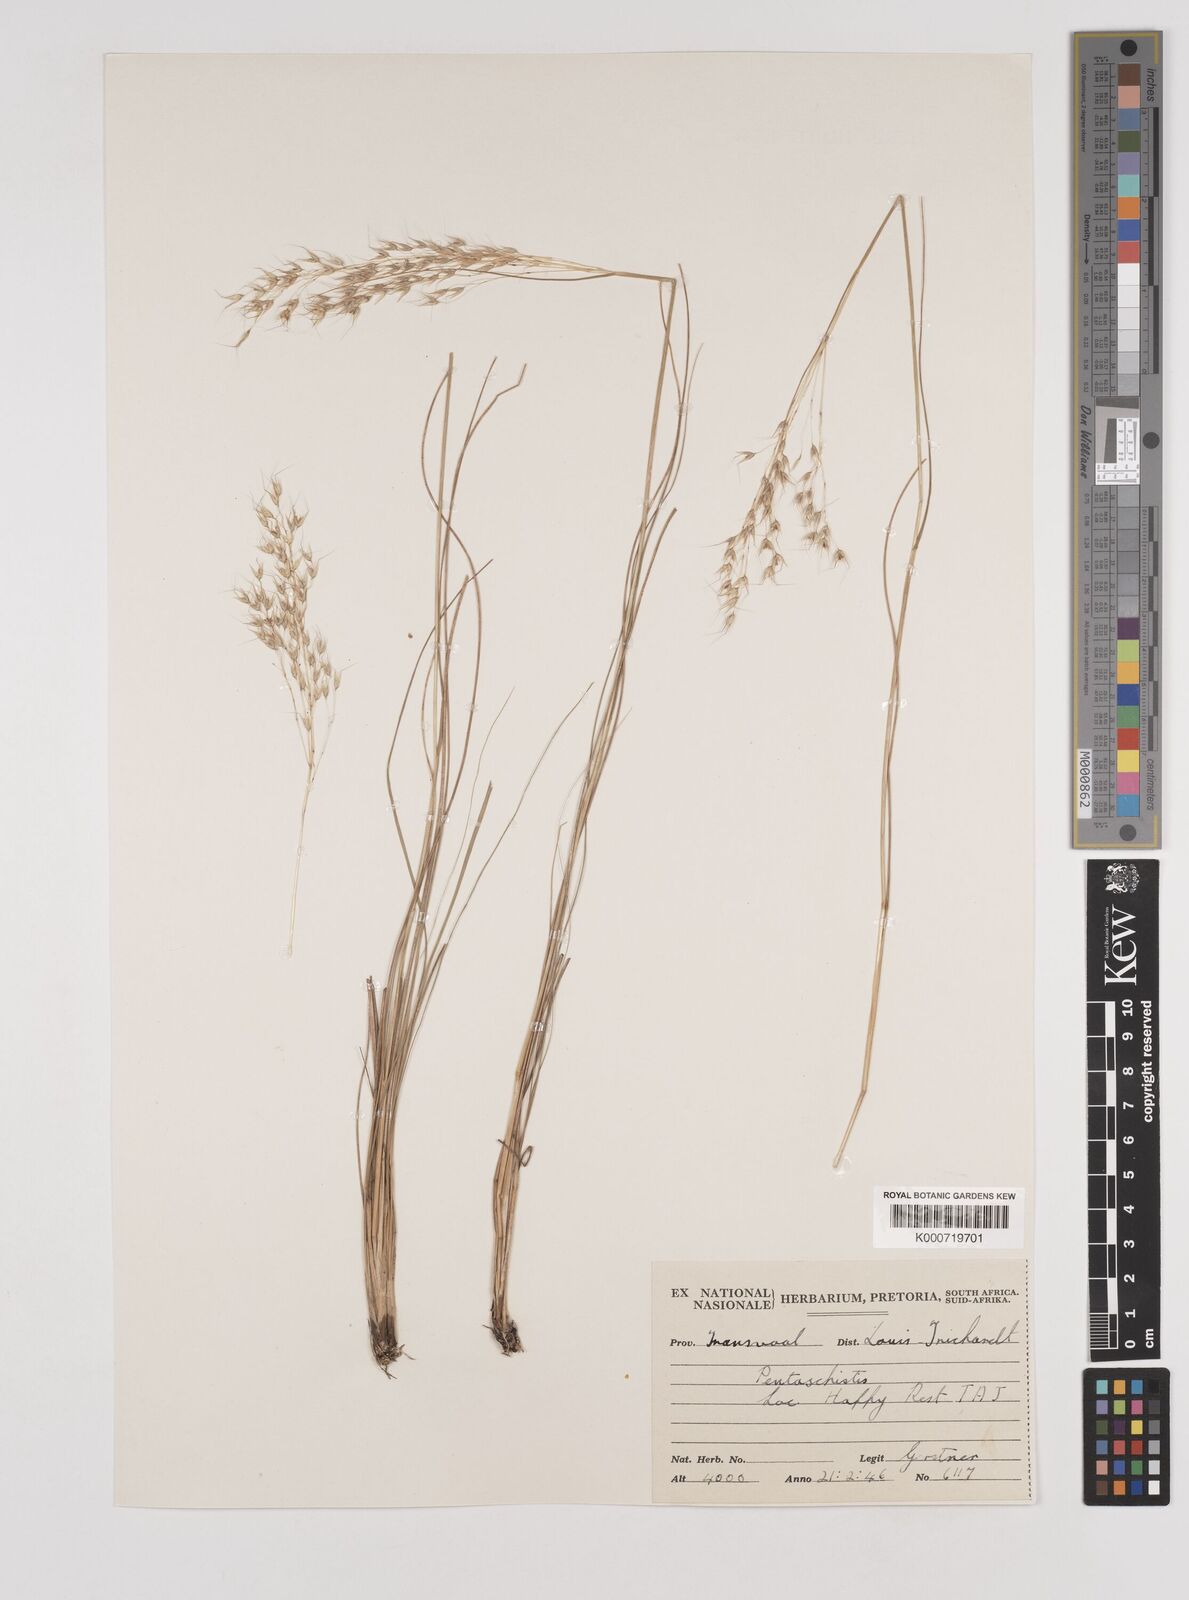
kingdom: Plantae
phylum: Tracheophyta
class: Liliopsida
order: Poales
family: Poaceae
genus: Pentameris
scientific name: Pentameris chippindalliae
